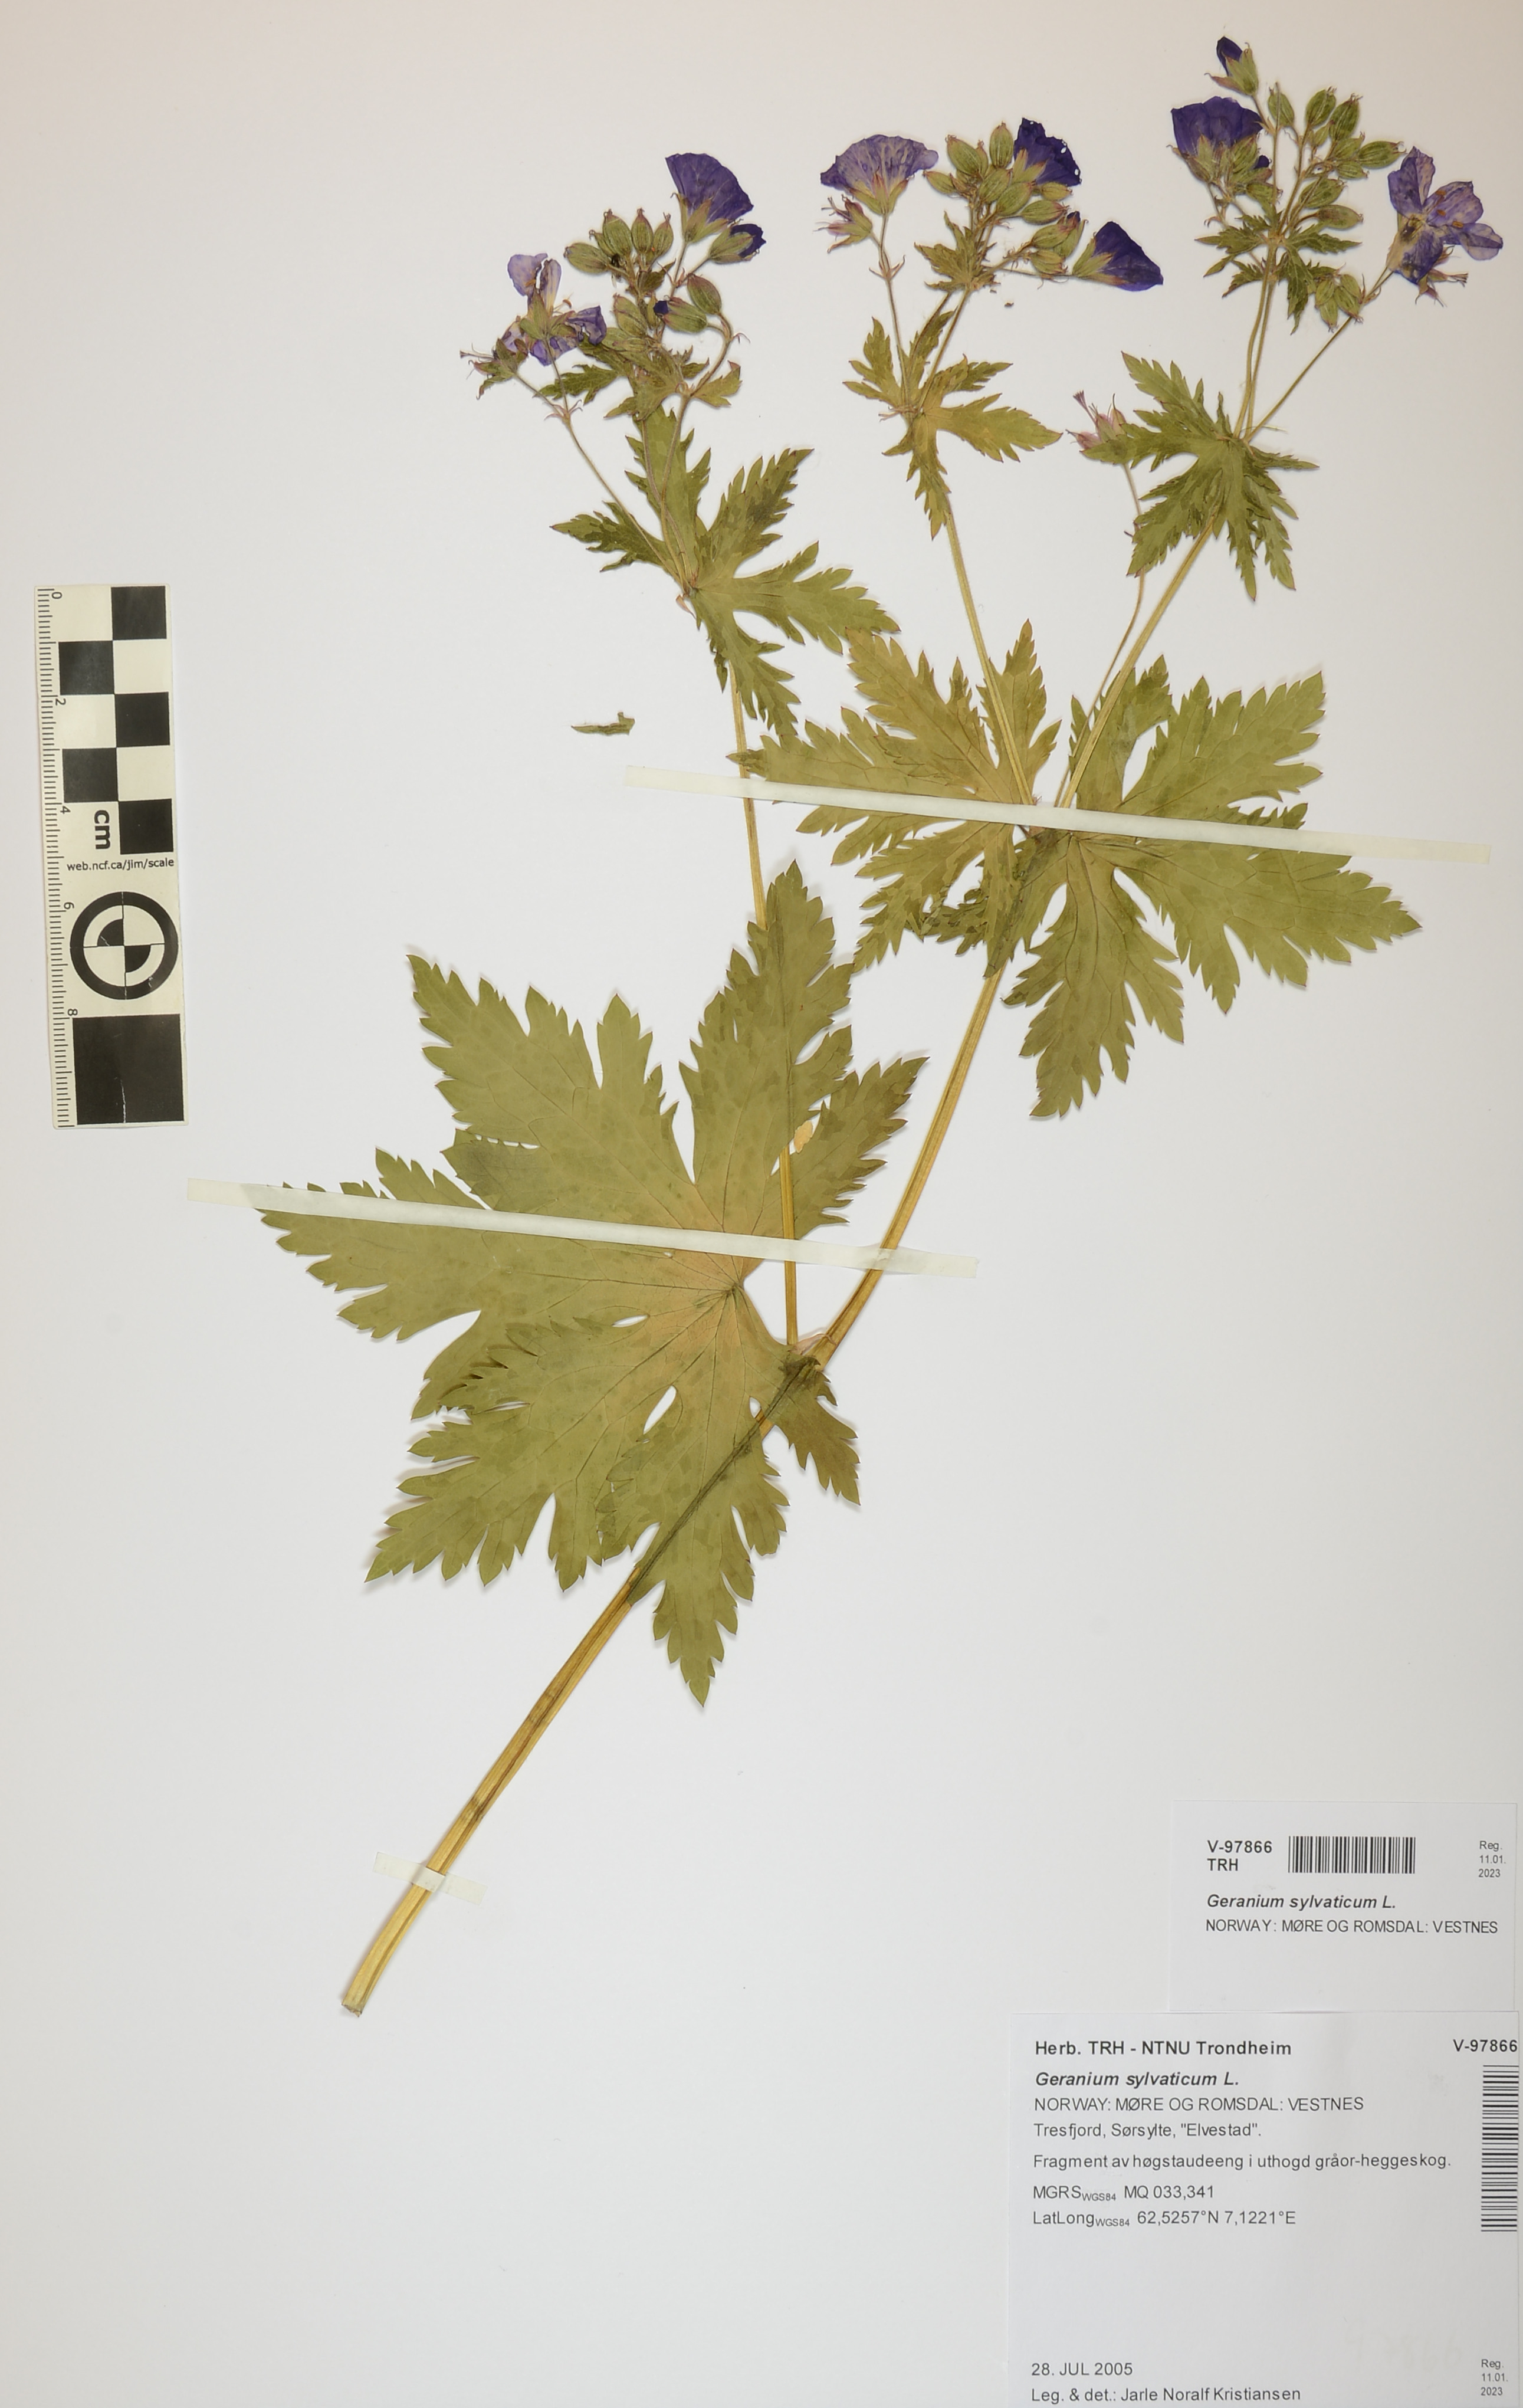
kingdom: Plantae
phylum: Tracheophyta
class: Magnoliopsida
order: Geraniales
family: Geraniaceae
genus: Geranium
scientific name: Geranium sylvaticum
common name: Wood crane's-bill
